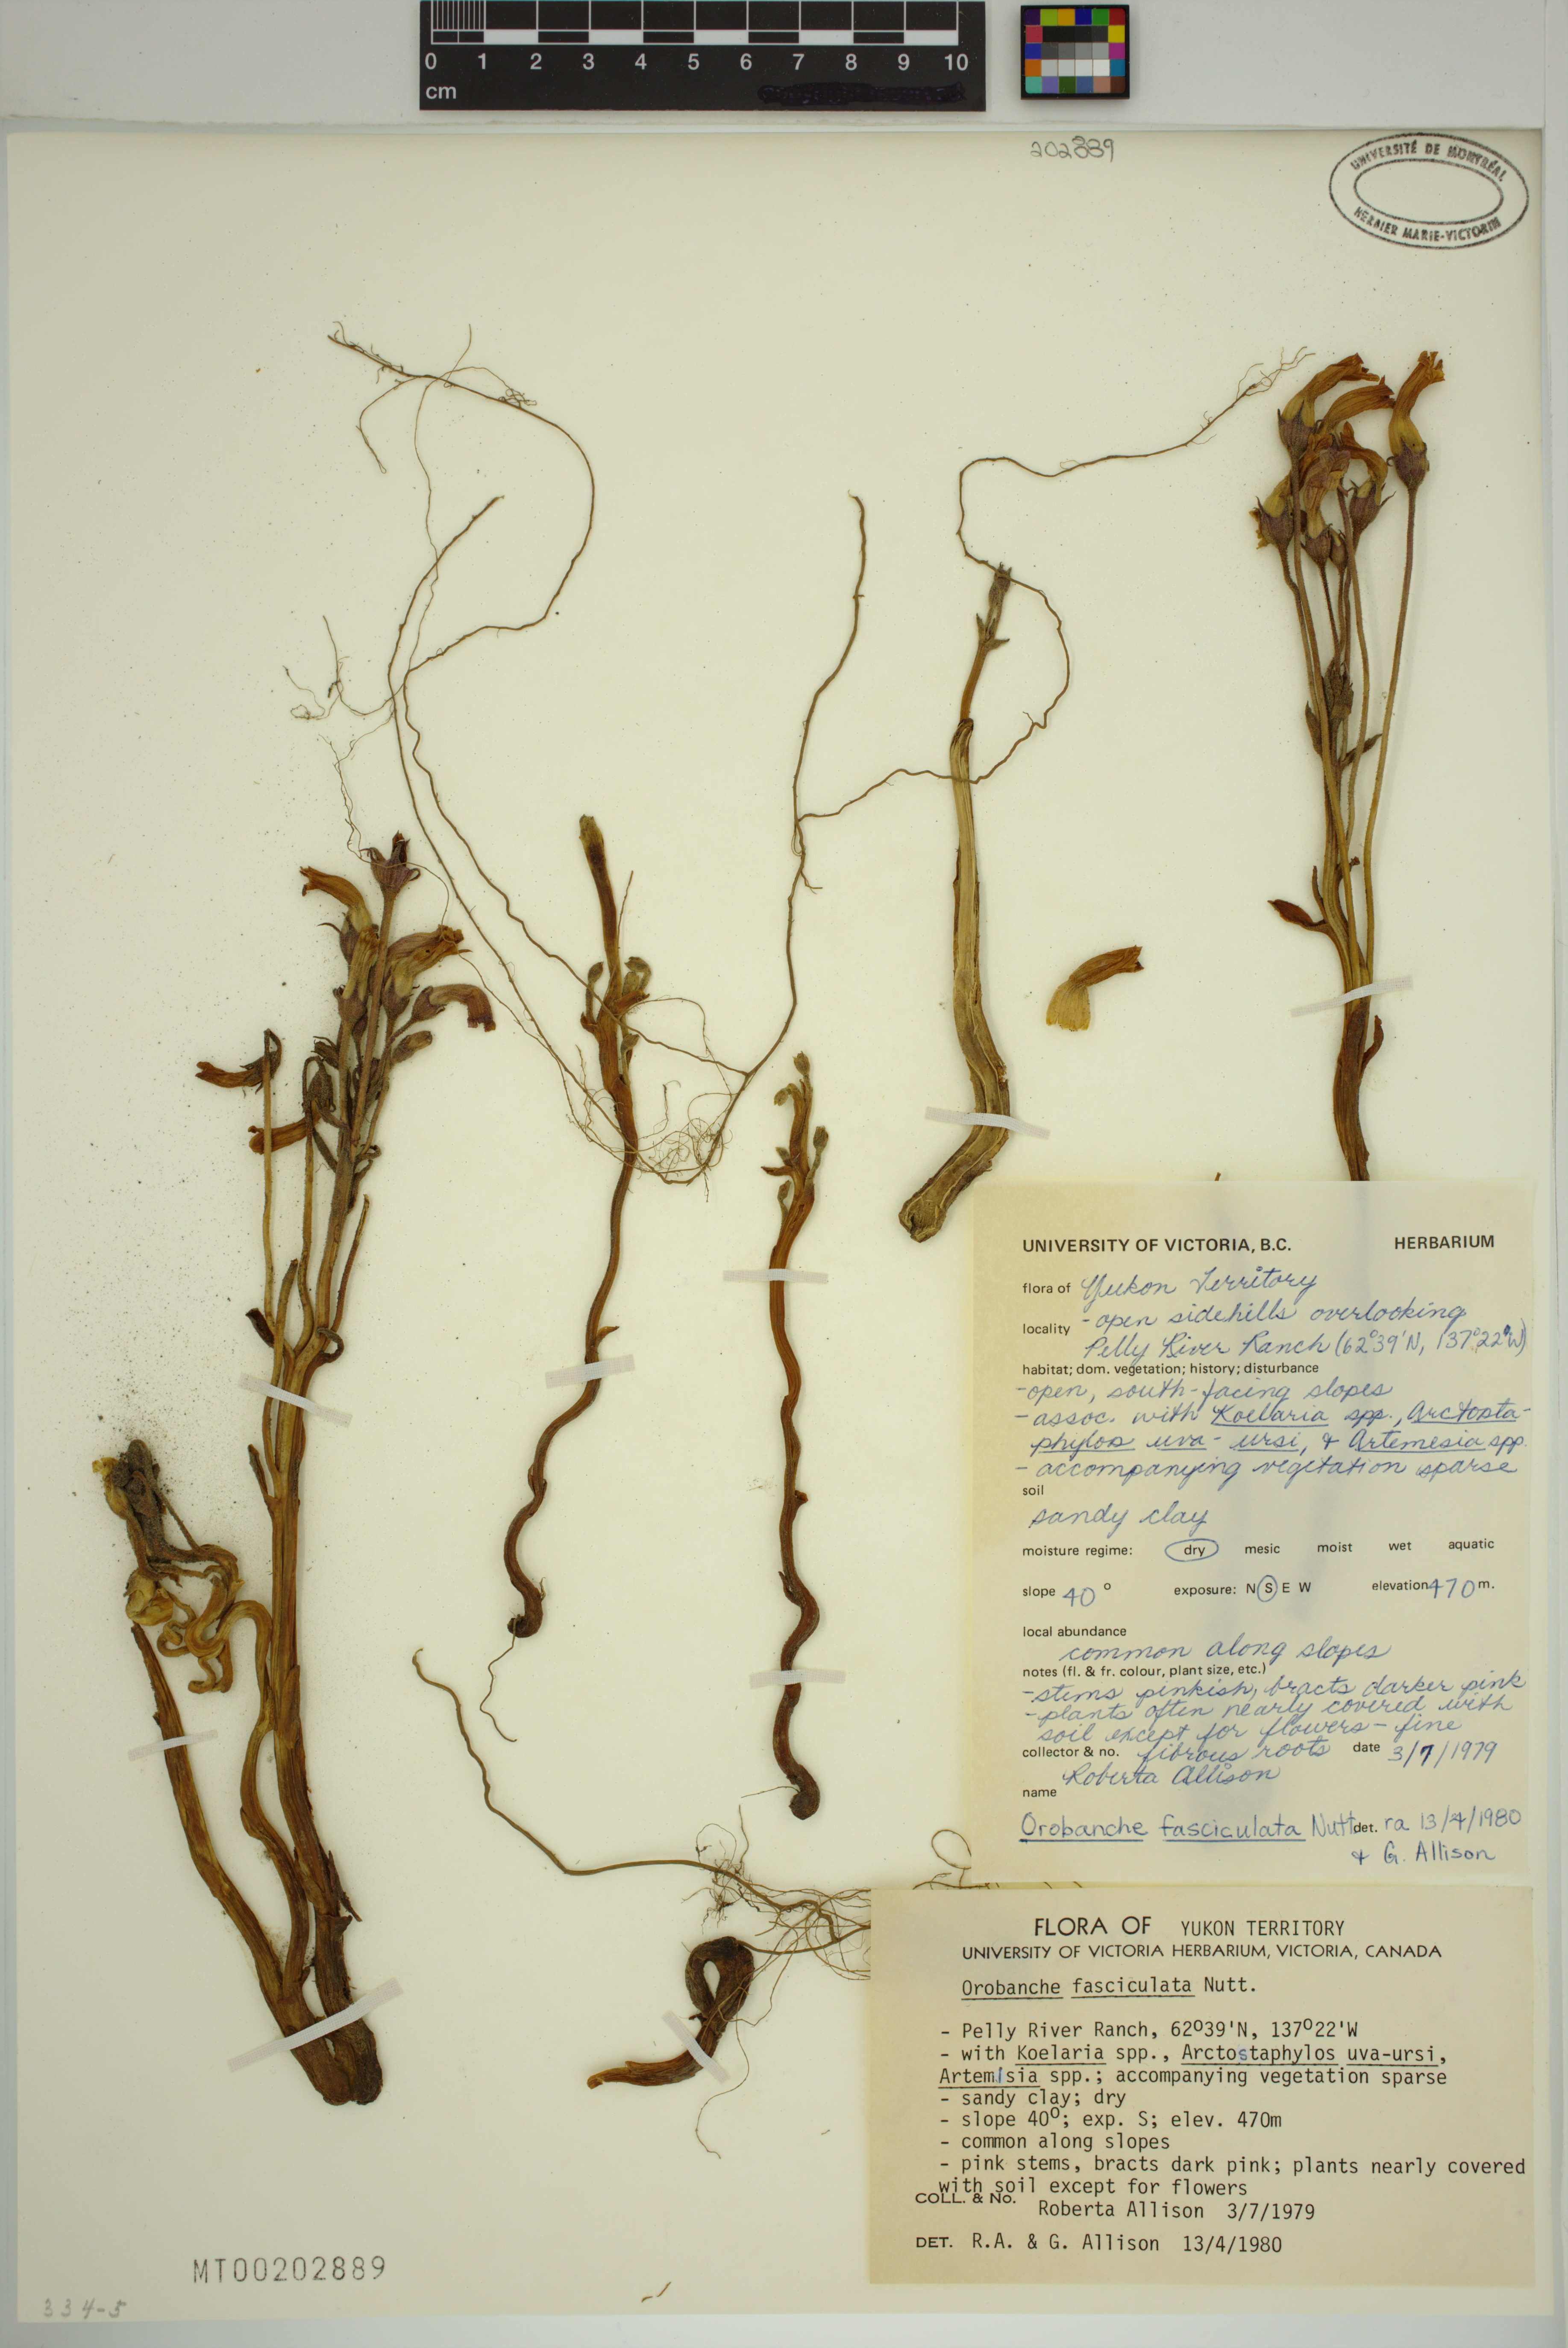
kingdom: Plantae
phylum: Tracheophyta
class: Magnoliopsida
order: Lamiales
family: Orobanchaceae
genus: Aphyllon
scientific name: Aphyllon fasciculatum
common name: Clustered broomrape
